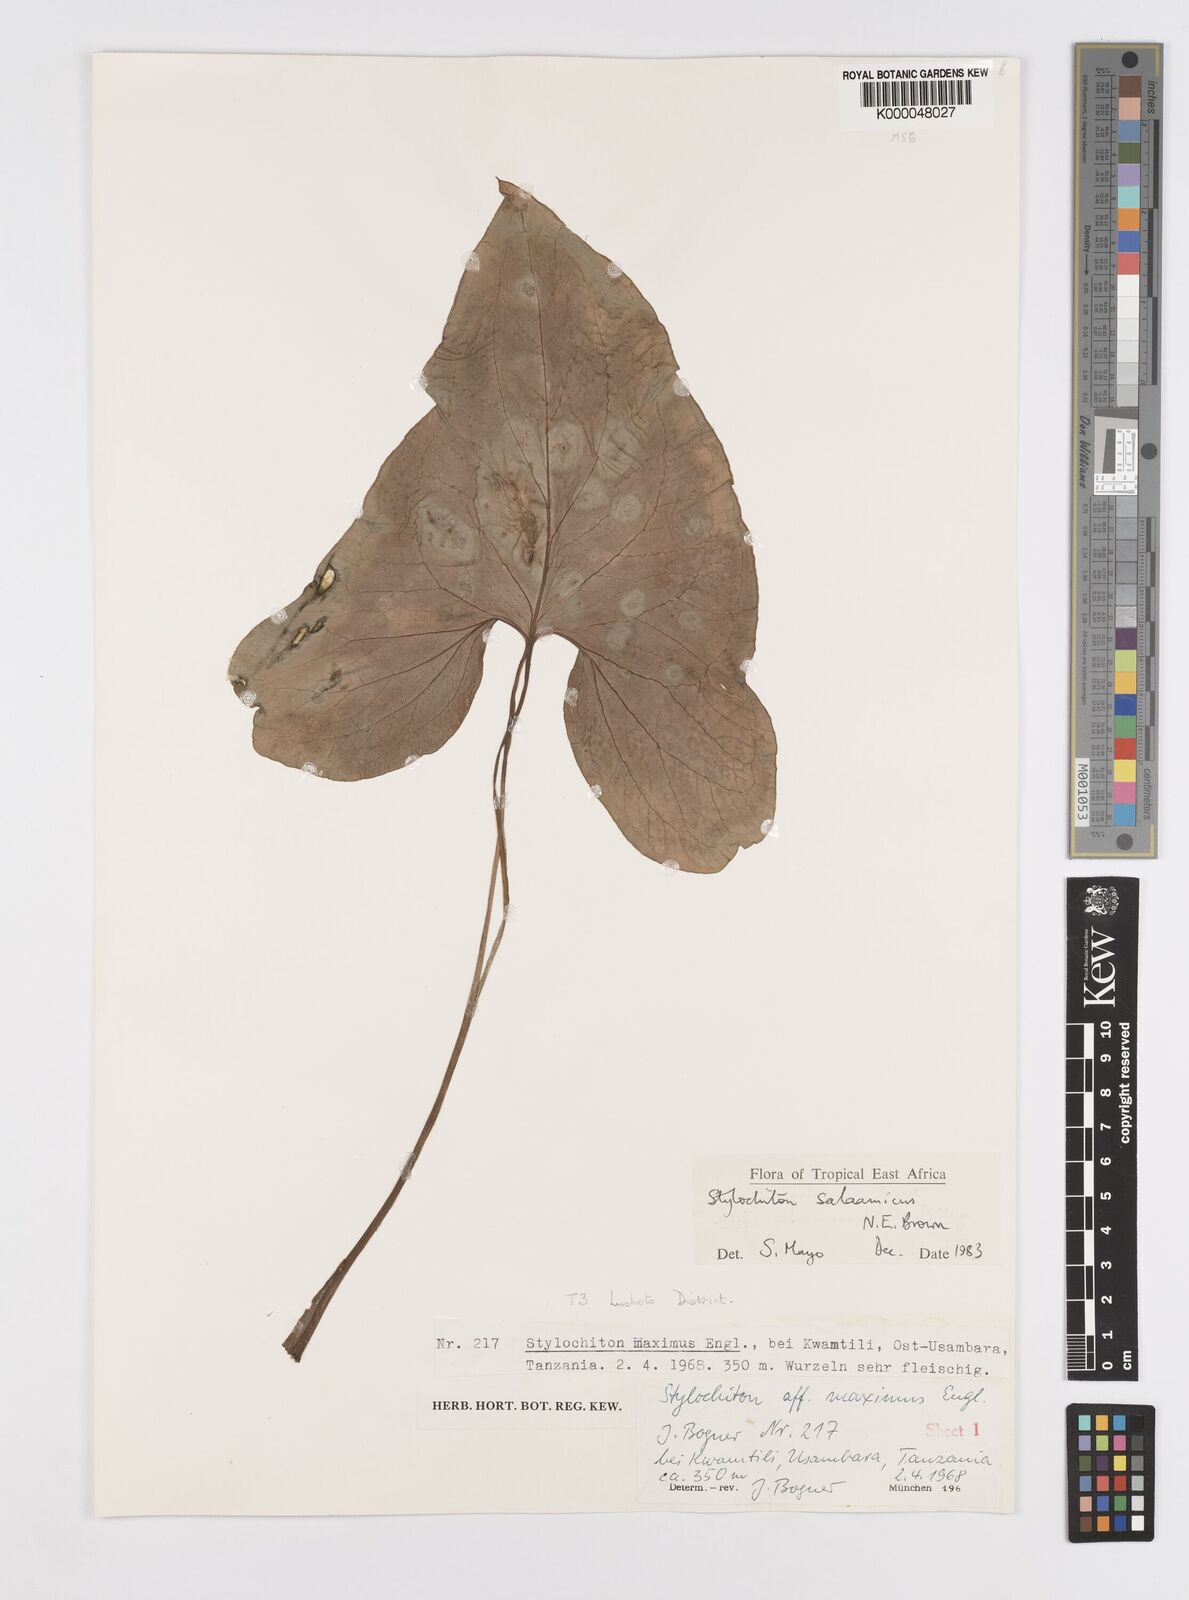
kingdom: Plantae
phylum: Tracheophyta
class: Liliopsida
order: Alismatales
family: Araceae
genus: Stylochaeton
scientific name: Stylochaeton salaamicum
